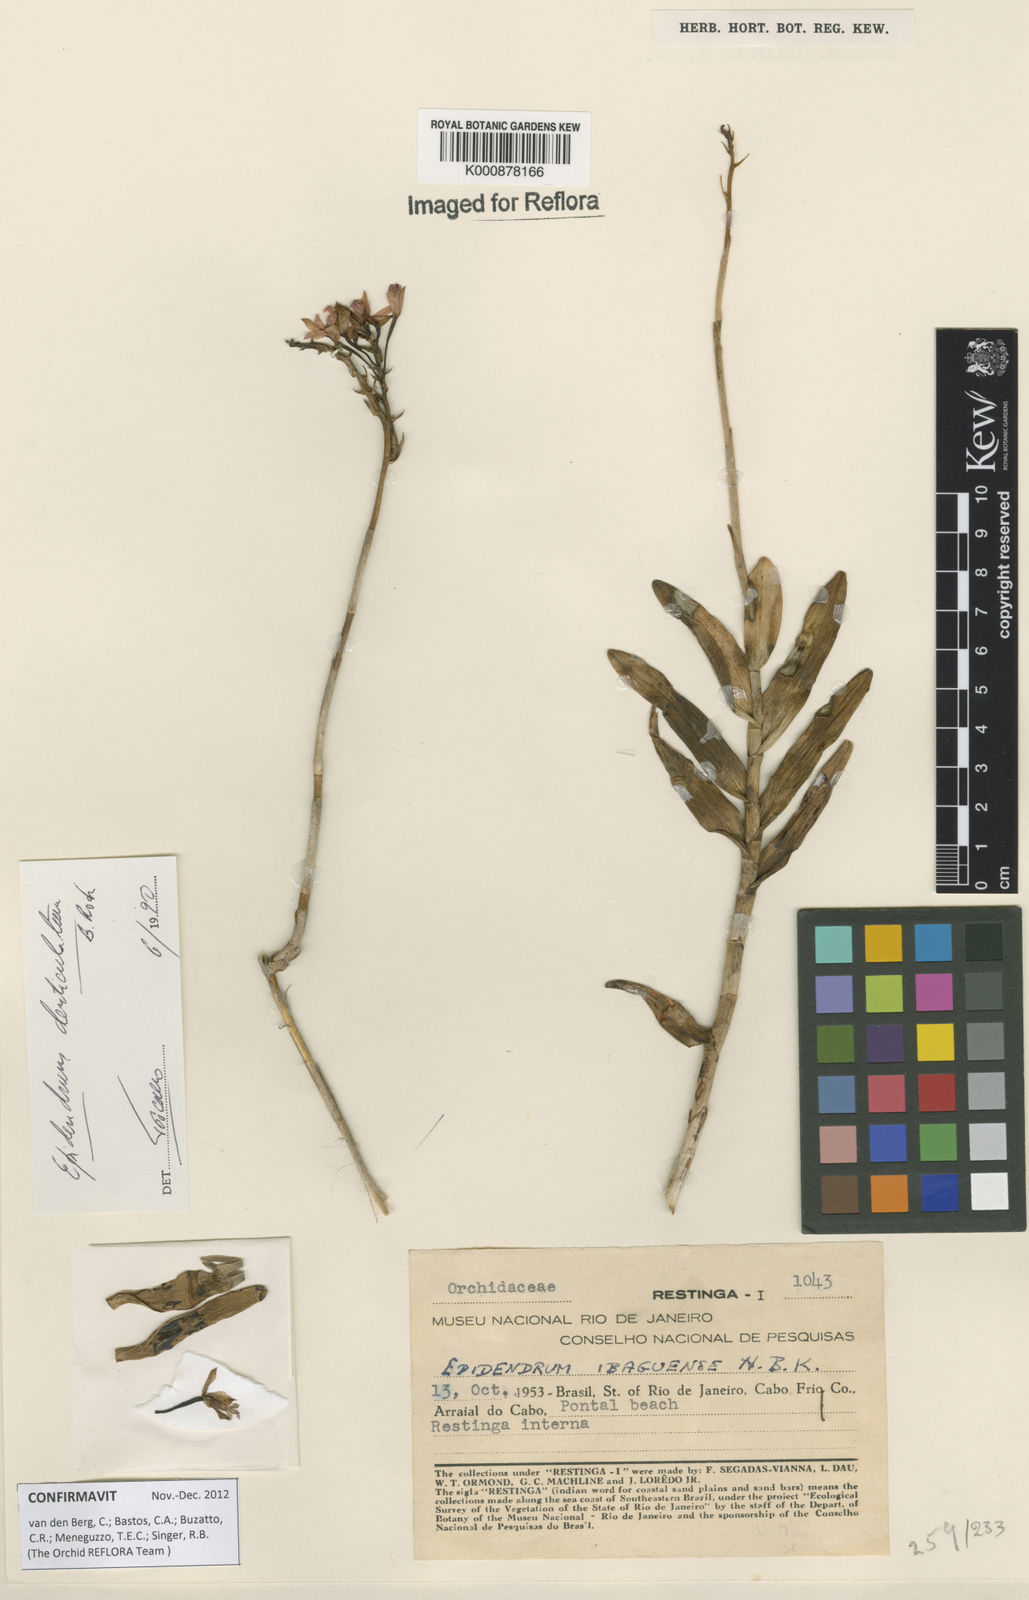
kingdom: Plantae
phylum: Tracheophyta
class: Liliopsida
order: Asparagales
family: Orchidaceae
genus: Epidendrum
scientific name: Epidendrum denticulatum
